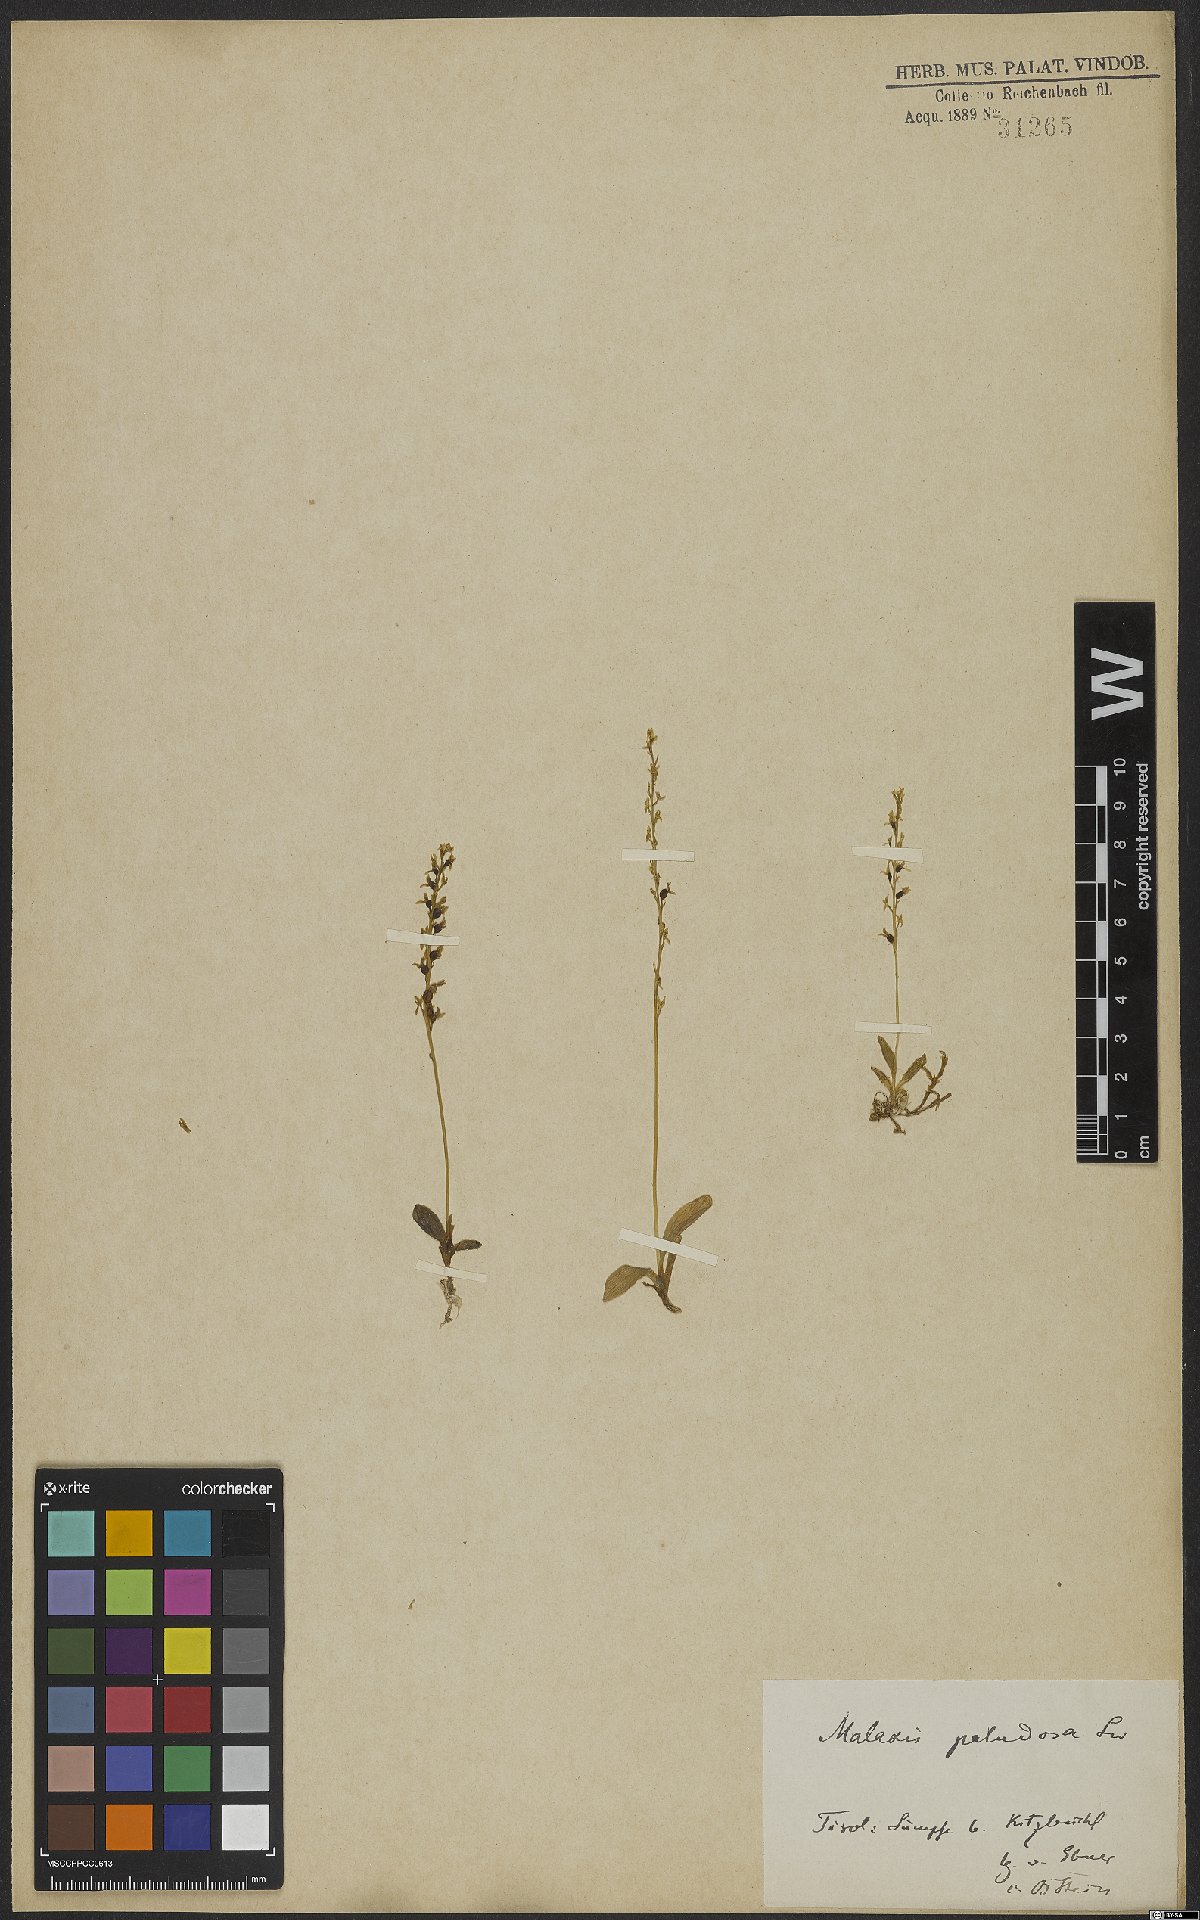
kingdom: Plantae
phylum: Tracheophyta
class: Liliopsida
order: Asparagales
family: Orchidaceae
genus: Hammarbya
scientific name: Hammarbya paludosa
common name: Bog orchid
